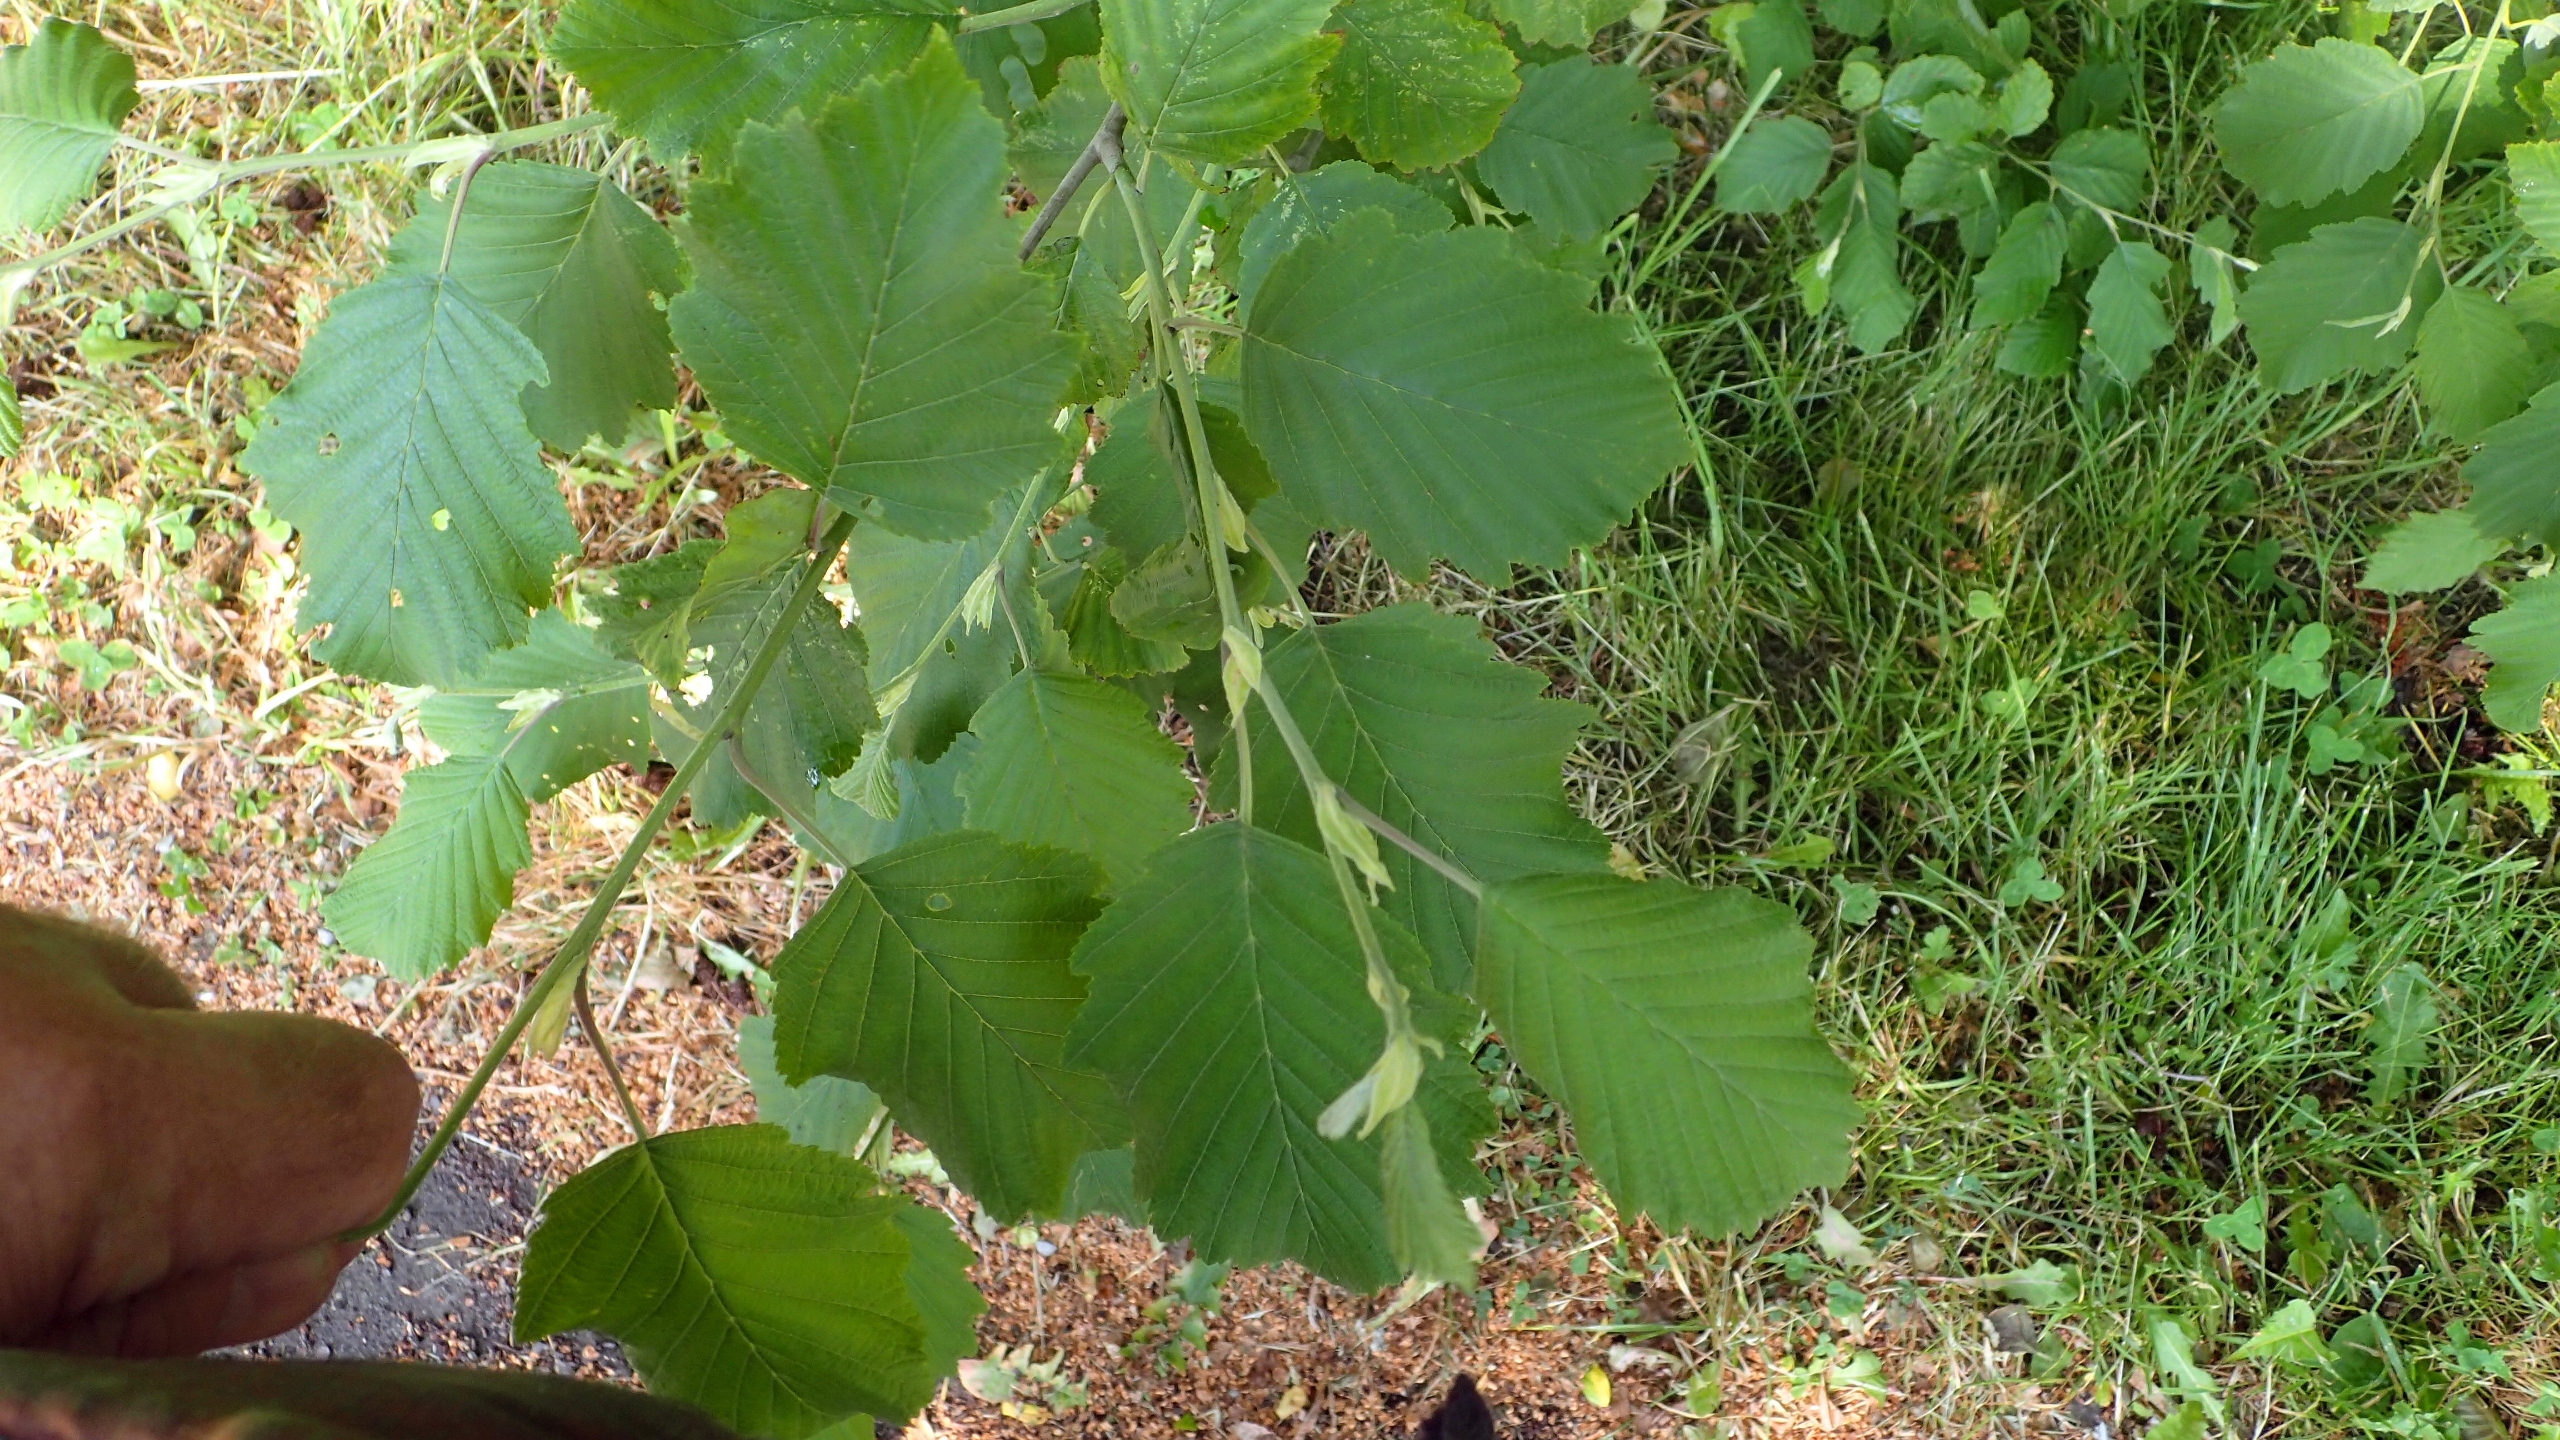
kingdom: Plantae
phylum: Tracheophyta
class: Magnoliopsida
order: Fagales
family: Betulaceae
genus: Alnus
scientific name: Alnus incana
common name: Grå-el/hvid-el
